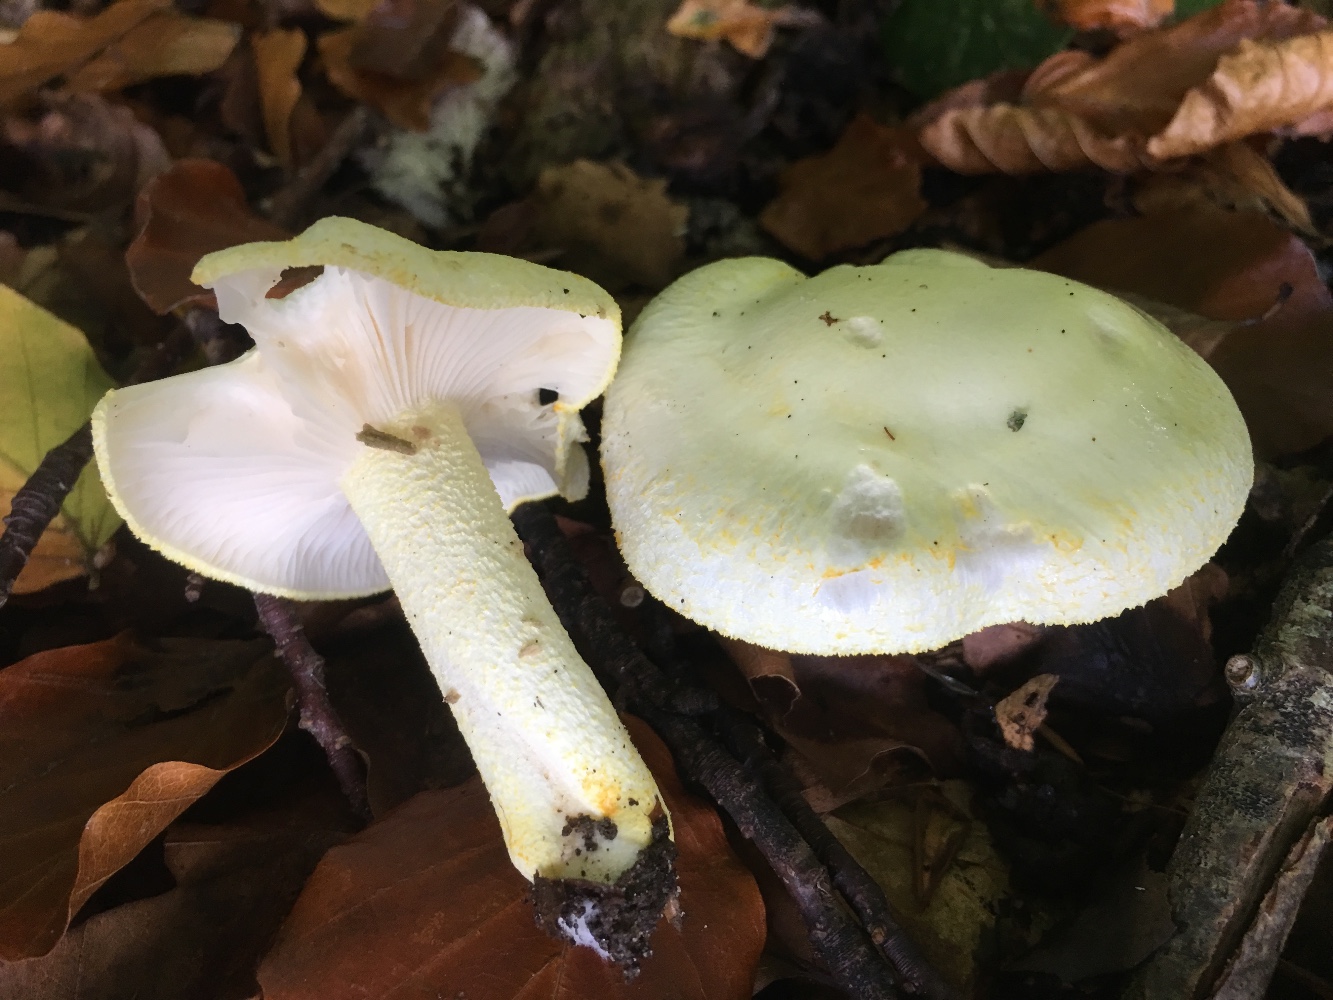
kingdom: Fungi
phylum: Basidiomycota
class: Agaricomycetes
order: Agaricales
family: Hygrophoraceae
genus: Hygrophorus
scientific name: Hygrophorus chrysodon
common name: gulfnugget sneglehat
